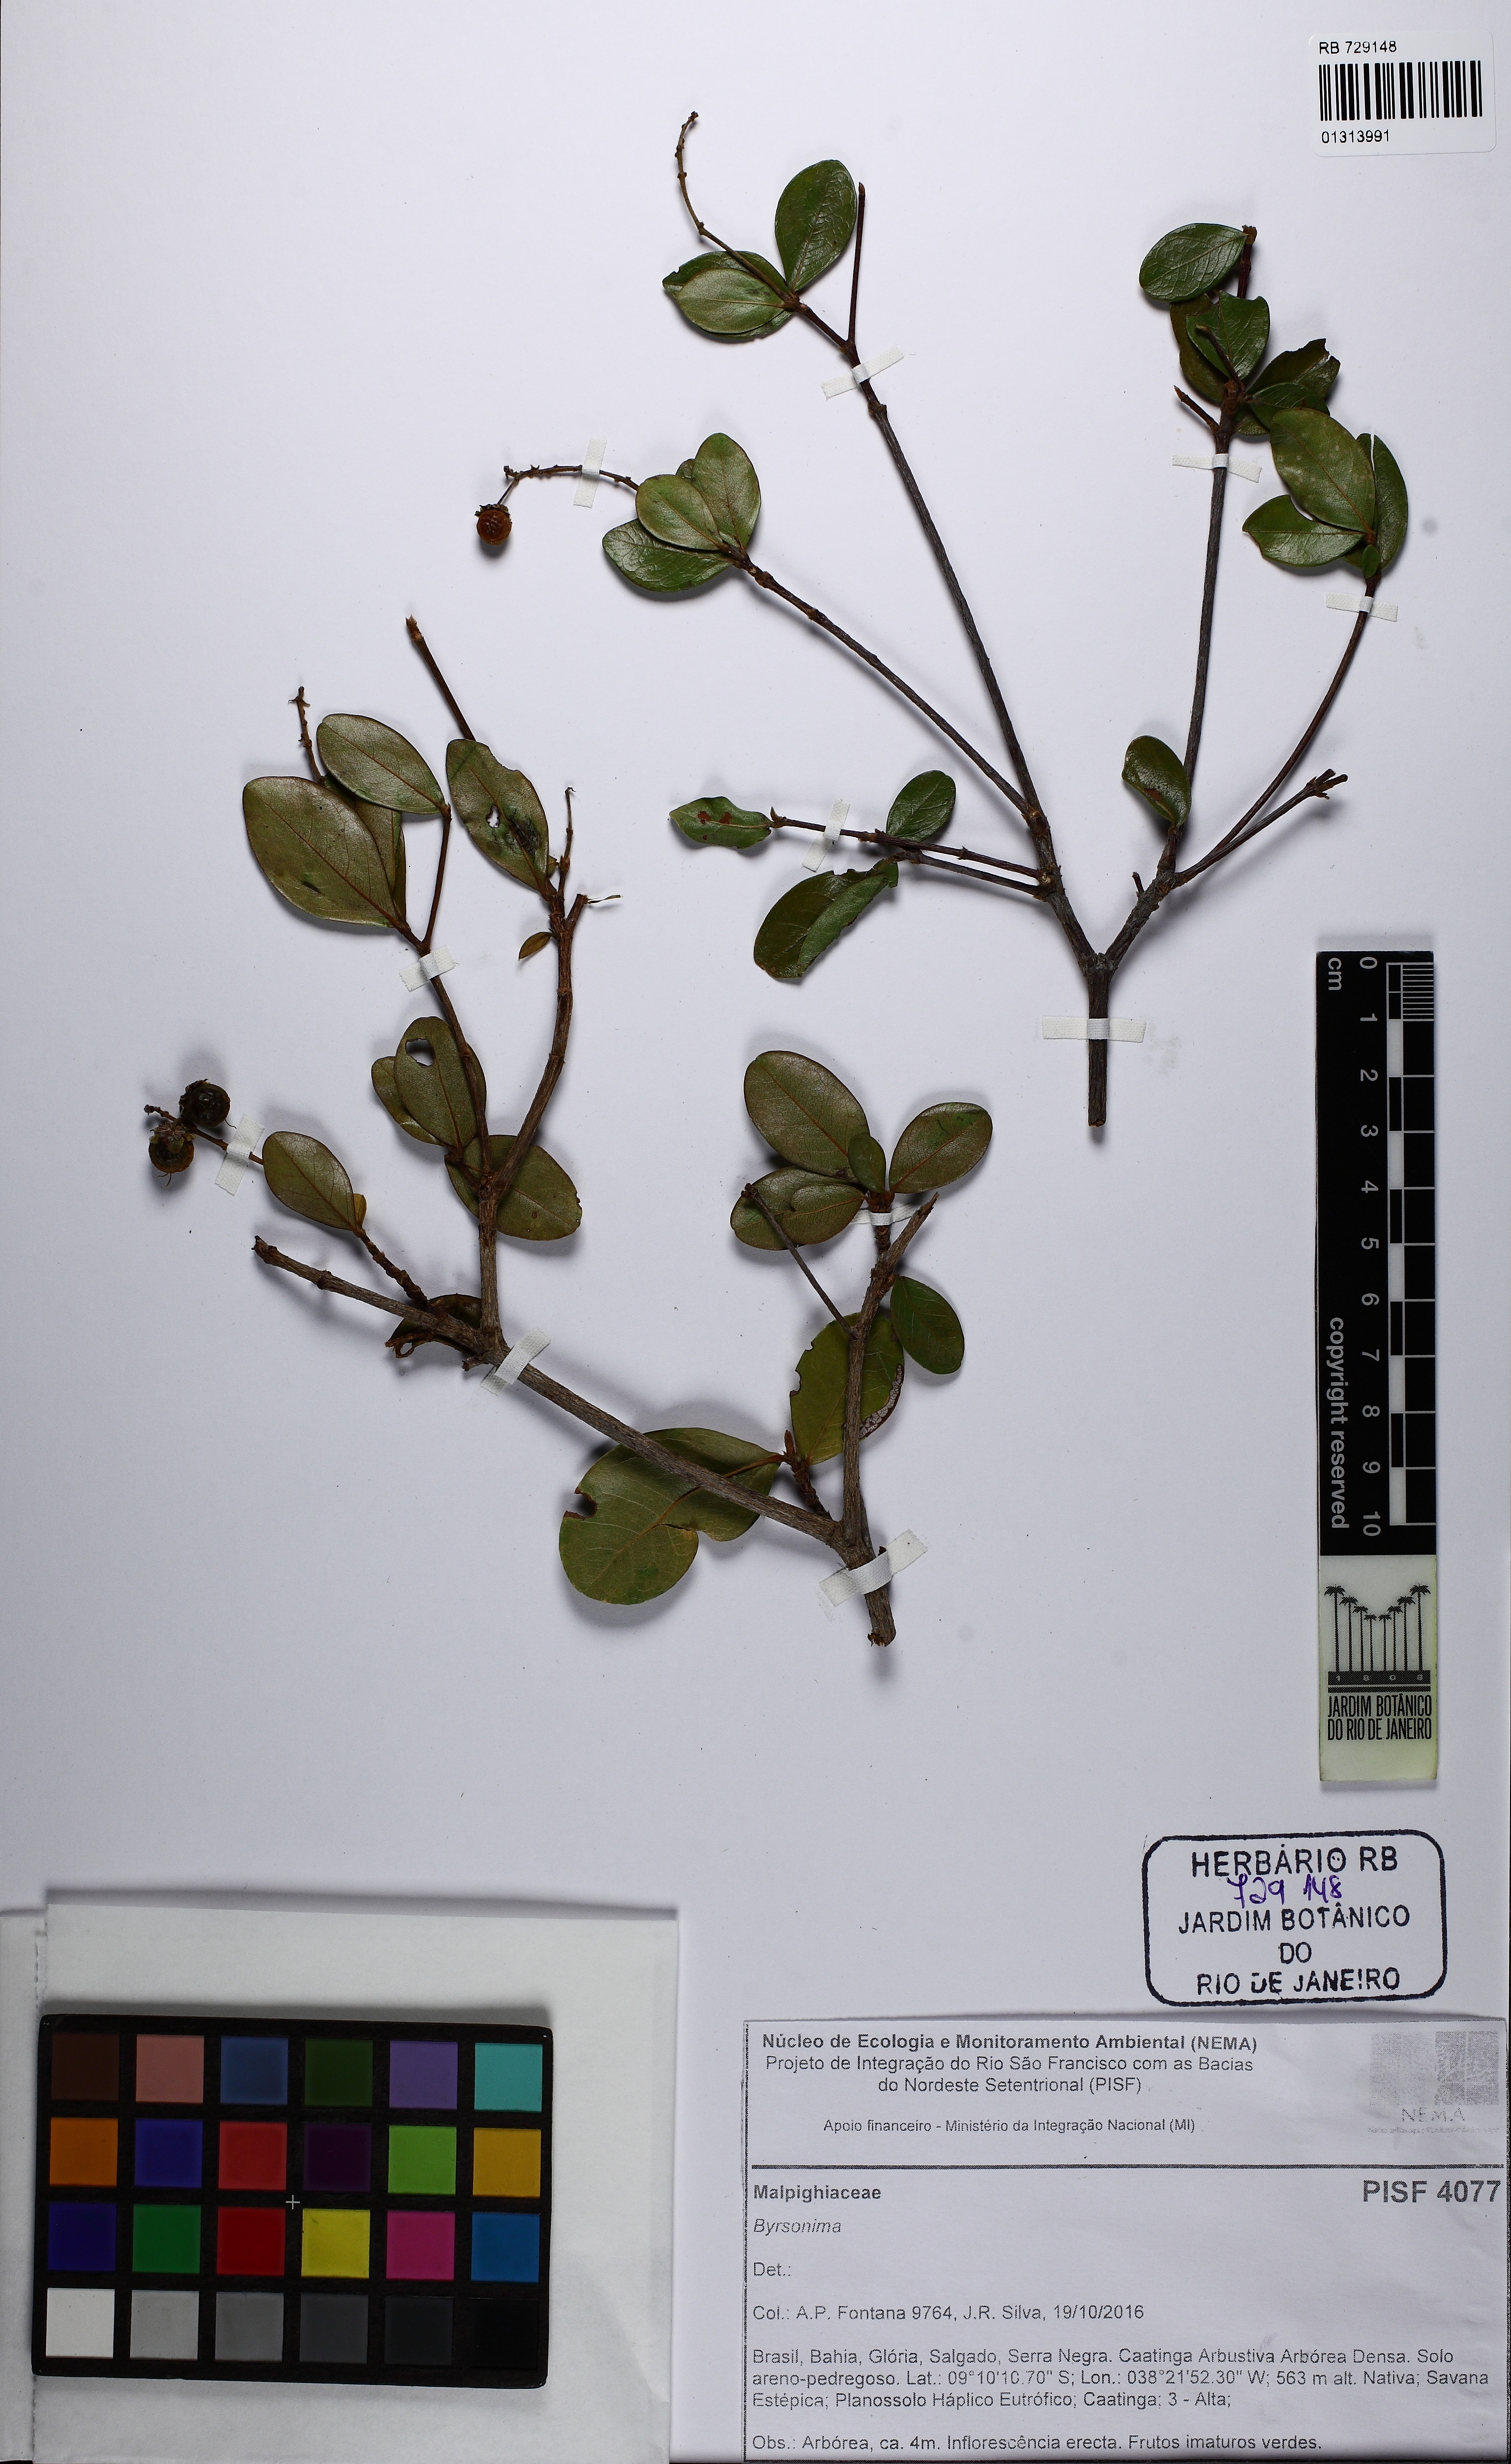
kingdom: Plantae
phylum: Tracheophyta
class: Magnoliopsida
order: Malpighiales
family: Malpighiaceae
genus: Byrsonima
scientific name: Byrsonima
